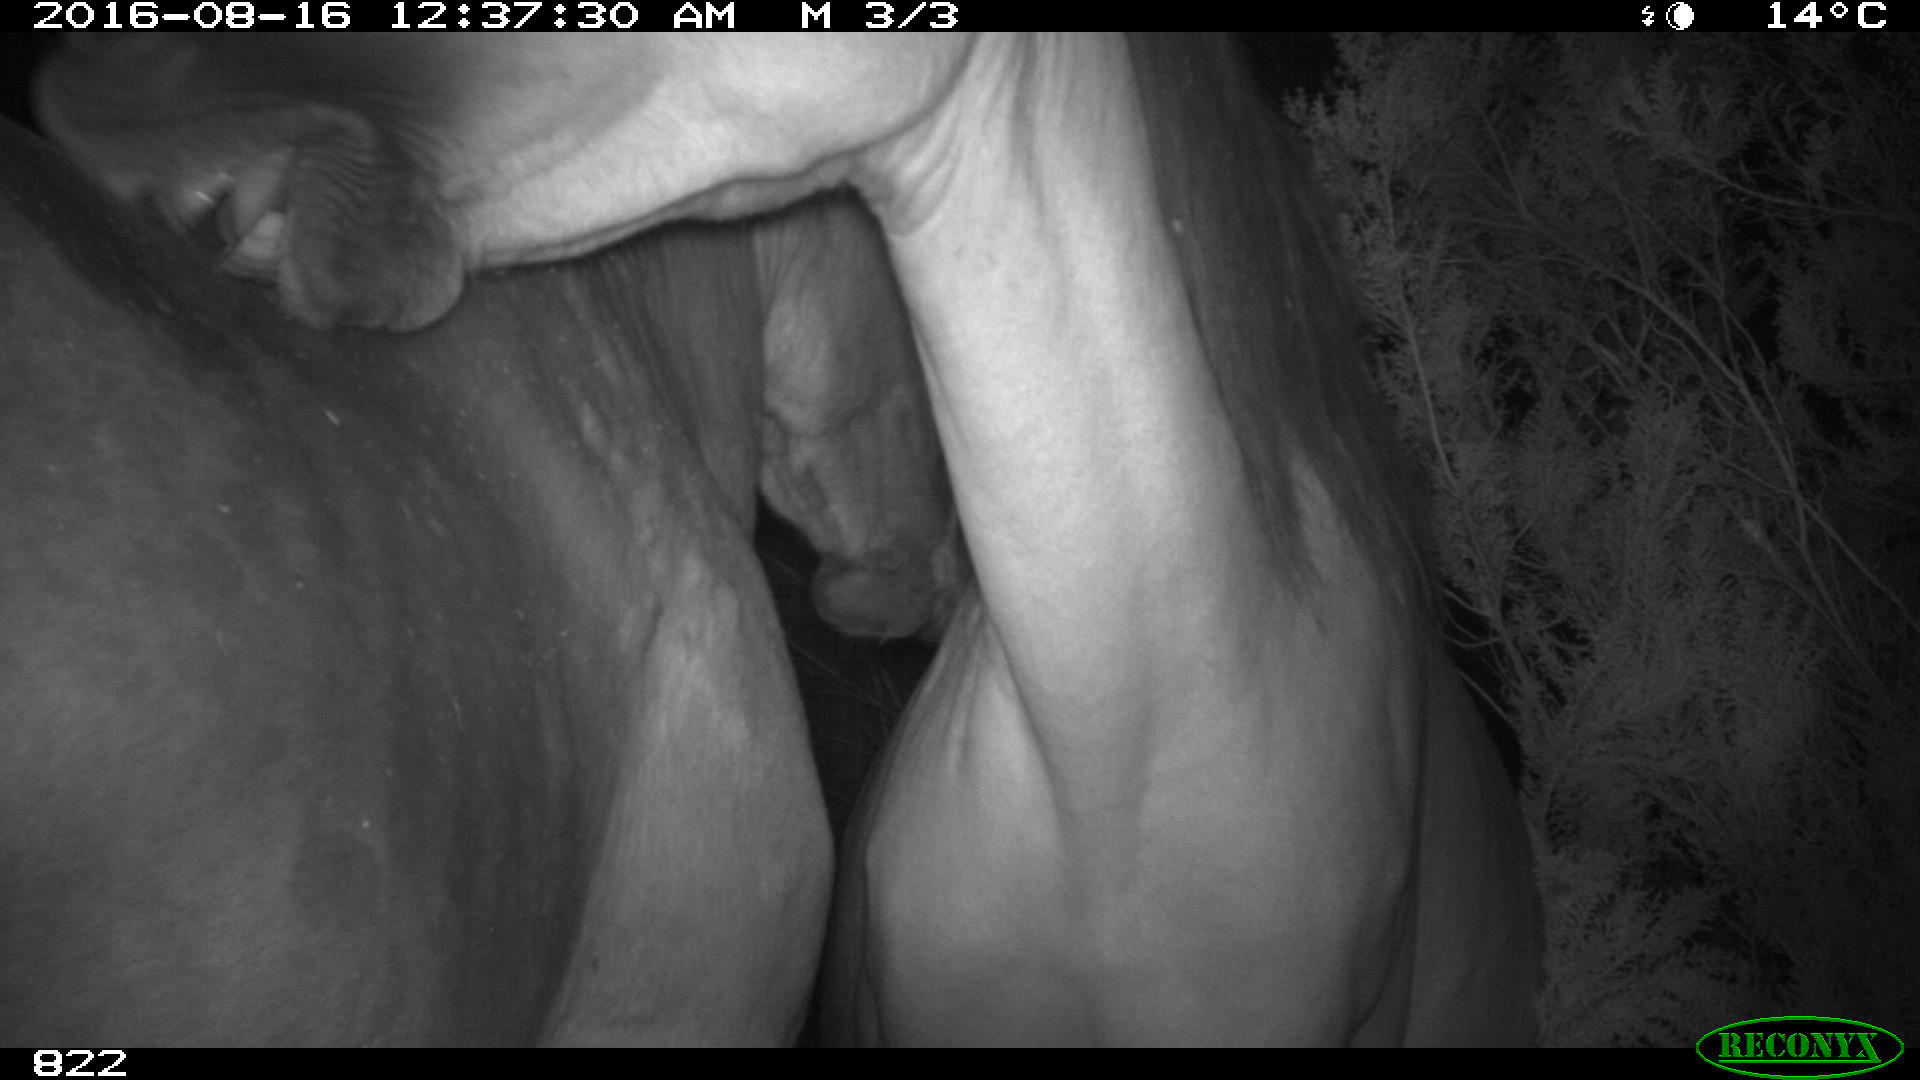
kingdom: Animalia
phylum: Chordata
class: Mammalia
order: Perissodactyla
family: Equidae
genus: Equus
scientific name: Equus caballus
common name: Horse
